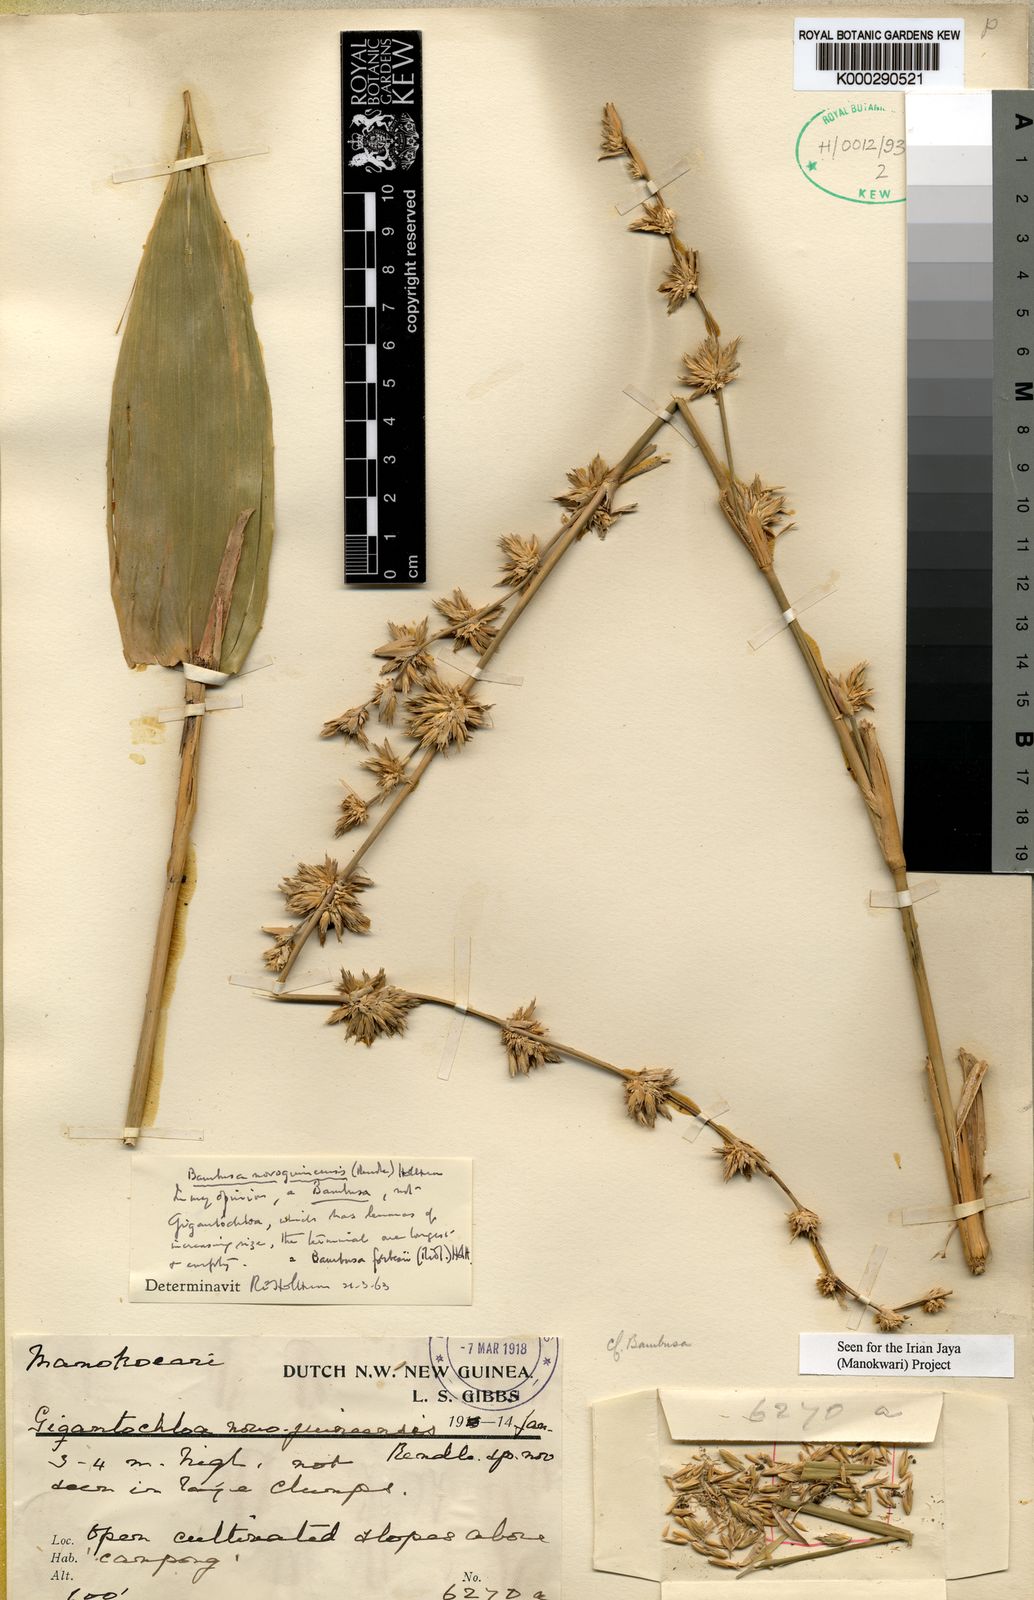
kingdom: Plantae
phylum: Tracheophyta
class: Liliopsida
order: Poales
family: Poaceae
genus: Neololeba
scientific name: Neololeba atra
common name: Cape bamboo
